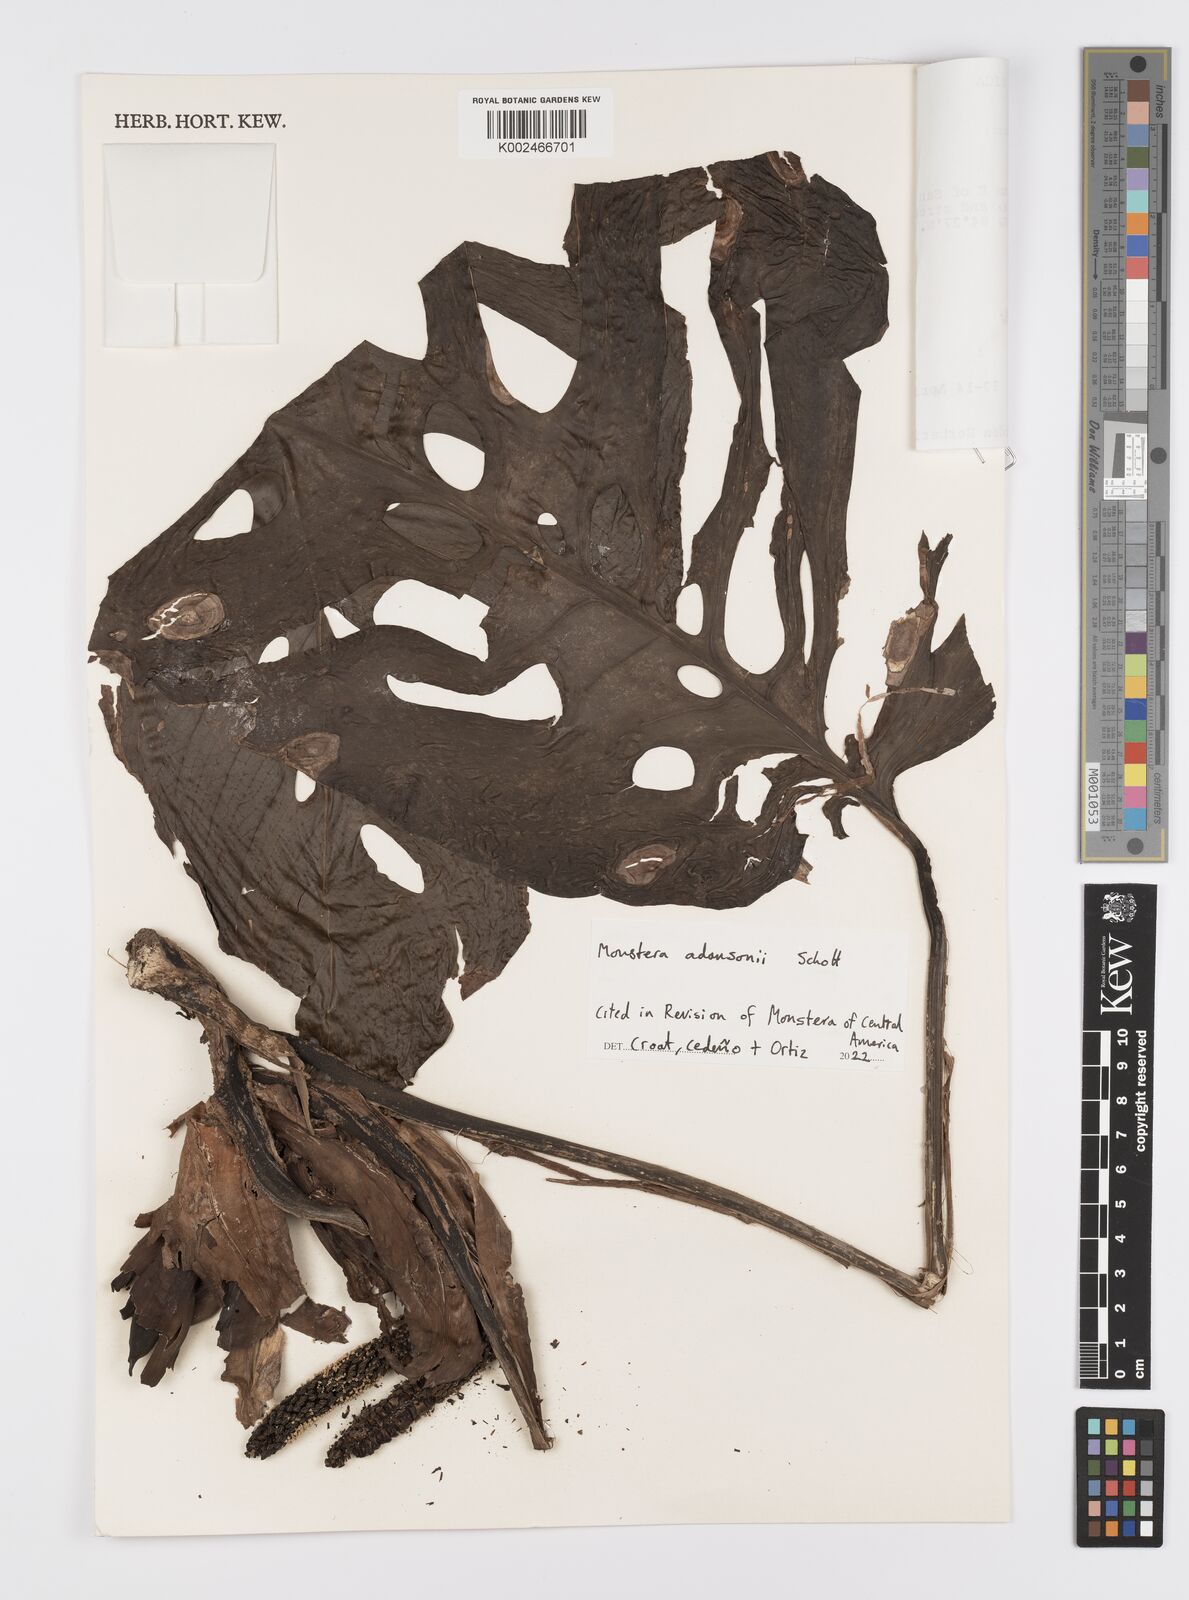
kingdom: Plantae
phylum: Tracheophyta
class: Liliopsida
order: Alismatales
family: Araceae
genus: Monstera
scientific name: Monstera adansonii
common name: Tarovine
